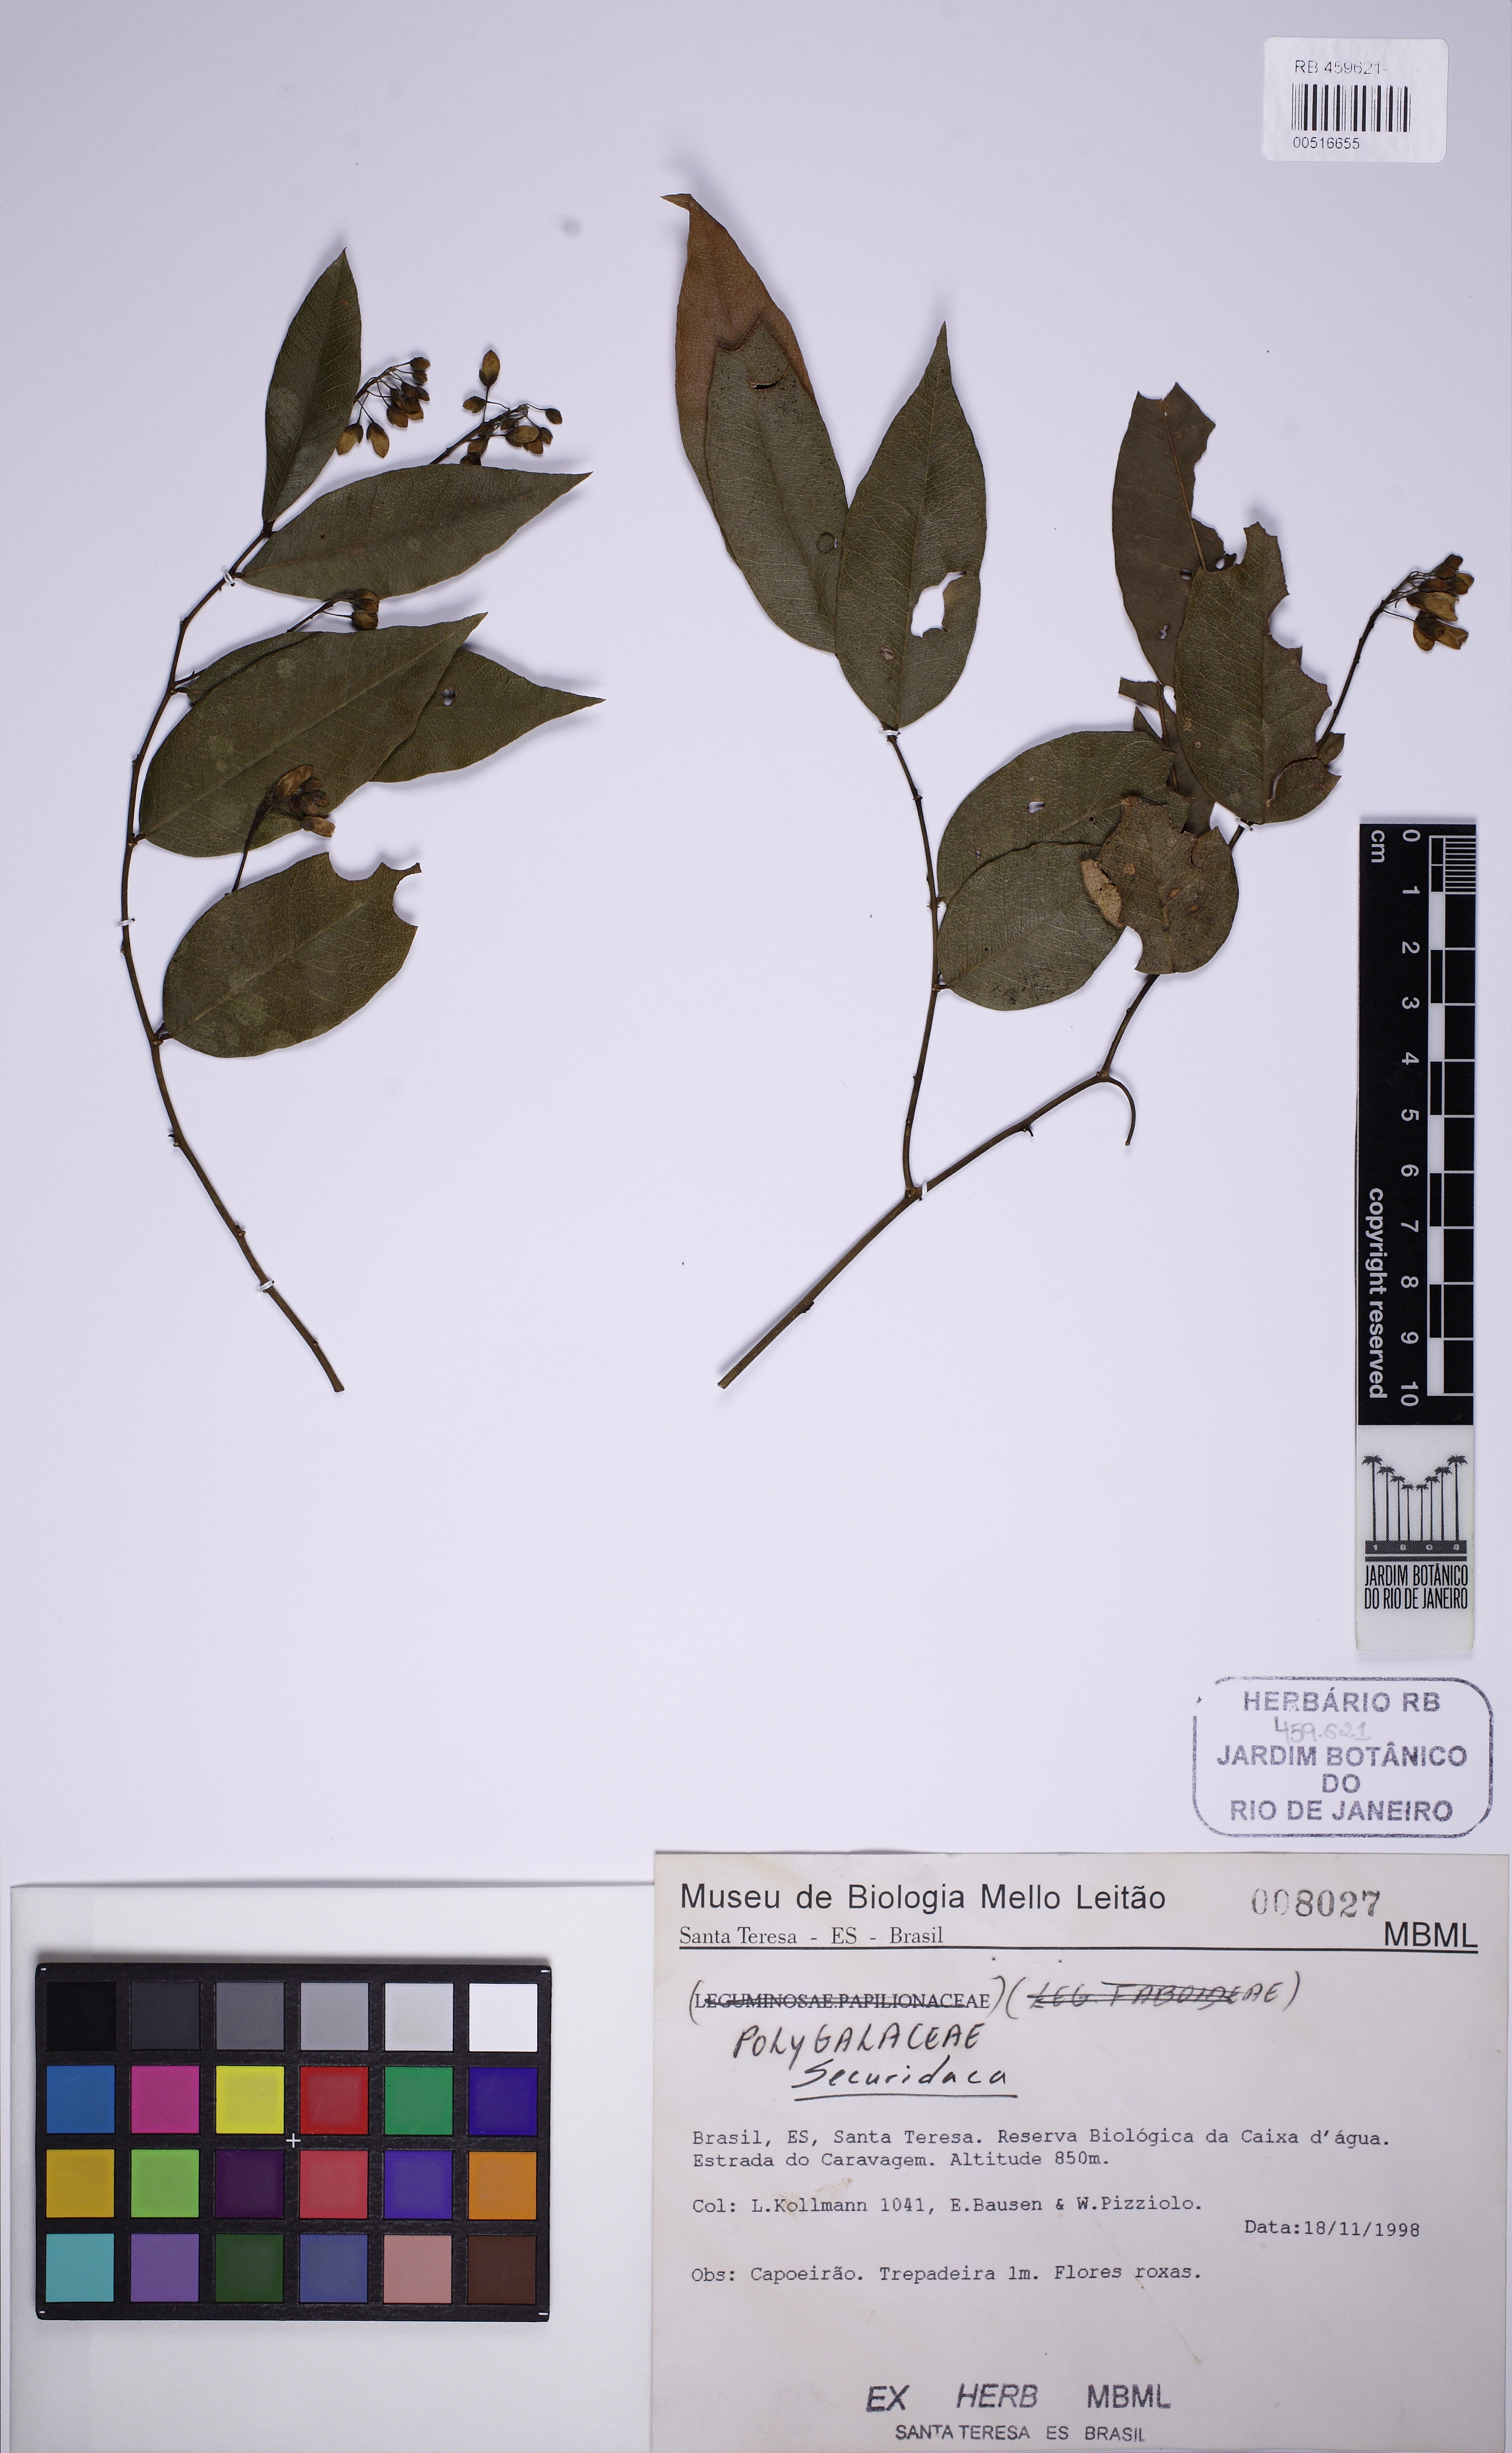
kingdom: Plantae
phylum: Tracheophyta
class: Magnoliopsida
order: Fabales
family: Polygalaceae
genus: Securidaca
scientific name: Securidaca
